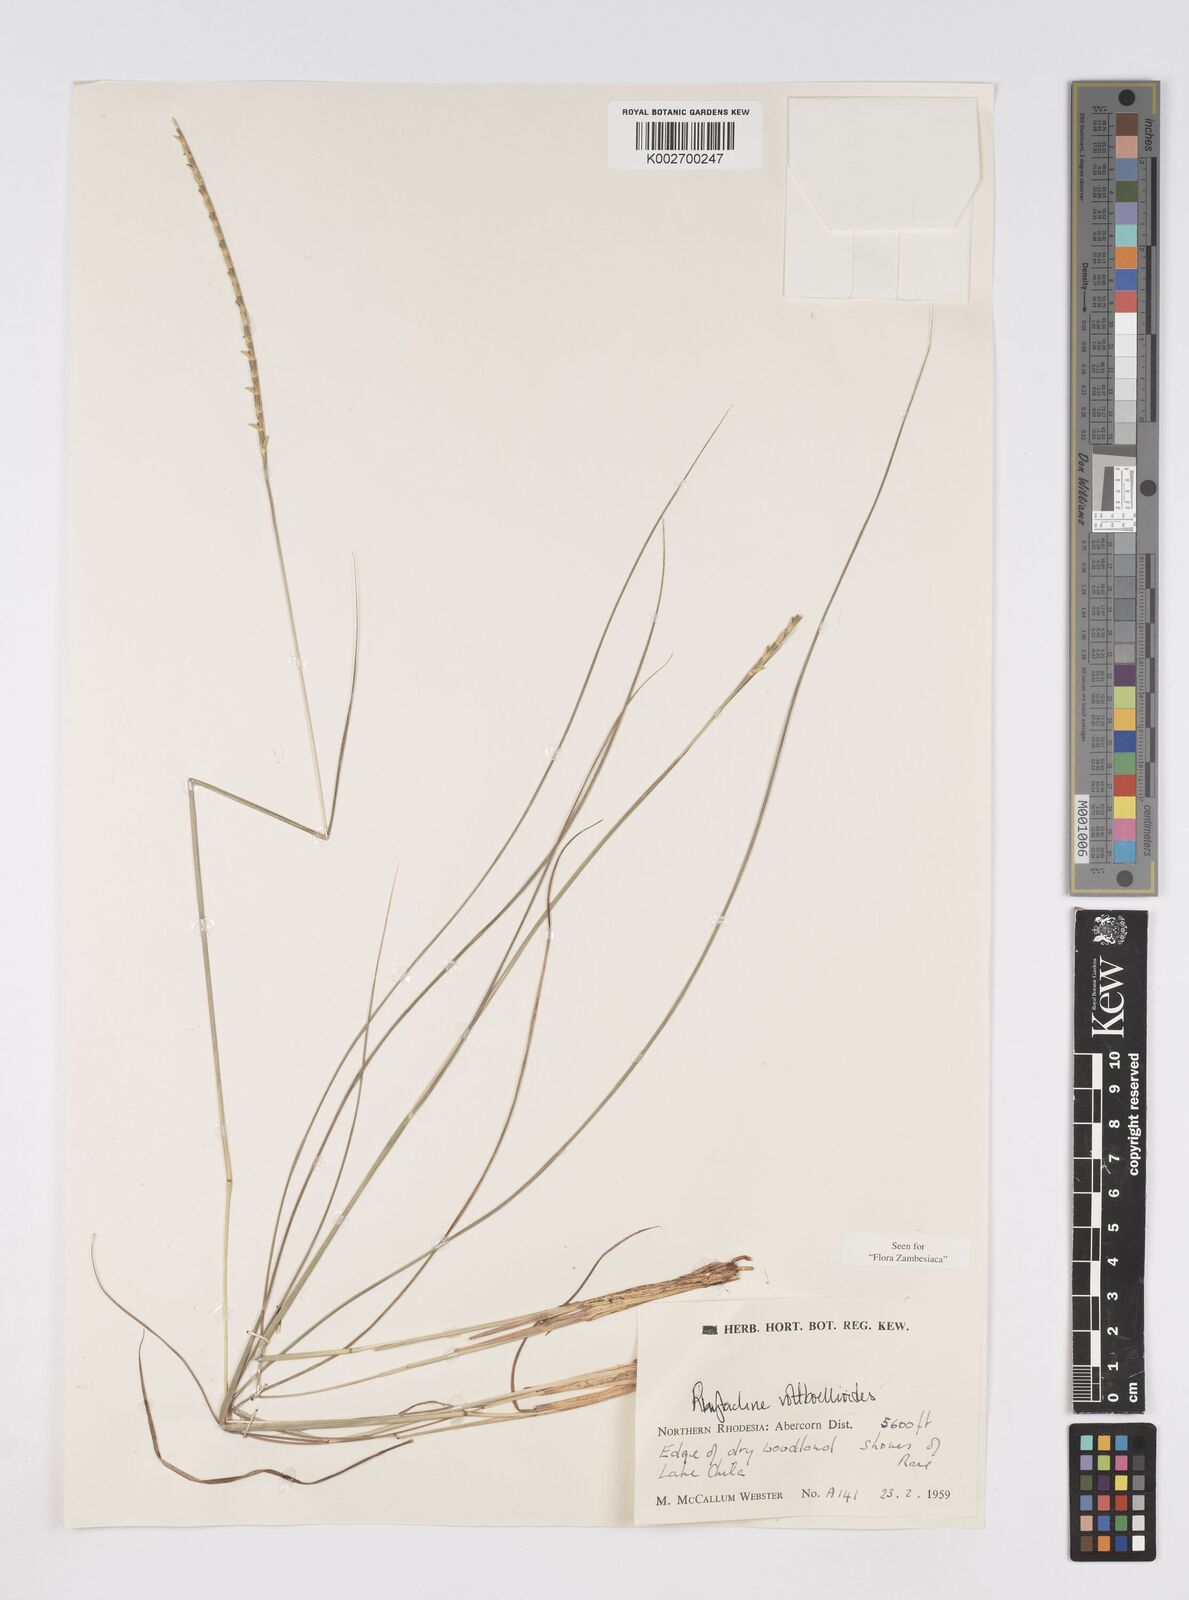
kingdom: Plantae
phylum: Tracheophyta
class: Liliopsida
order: Poales
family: Poaceae
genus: Rhytachne
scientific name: Rhytachne rottboellioides
